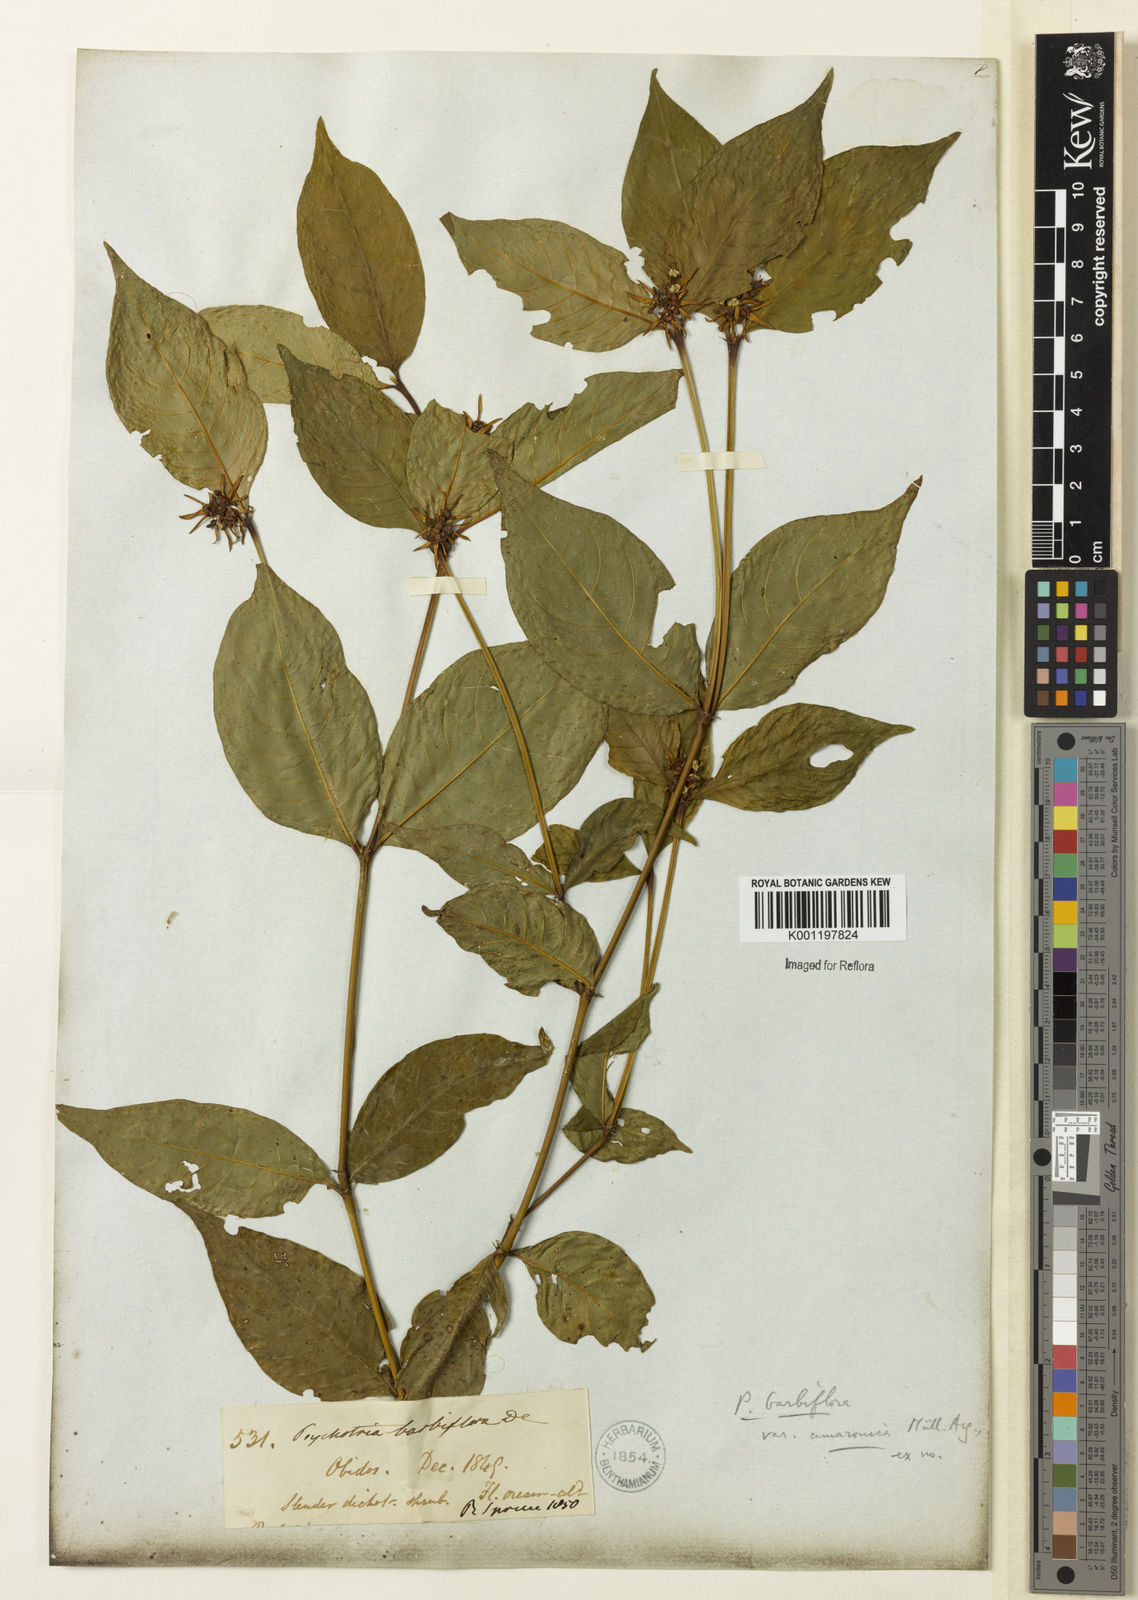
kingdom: Plantae
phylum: Tracheophyta
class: Magnoliopsida
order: Gentianales
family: Rubiaceae
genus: Psychotria
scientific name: Psychotria
